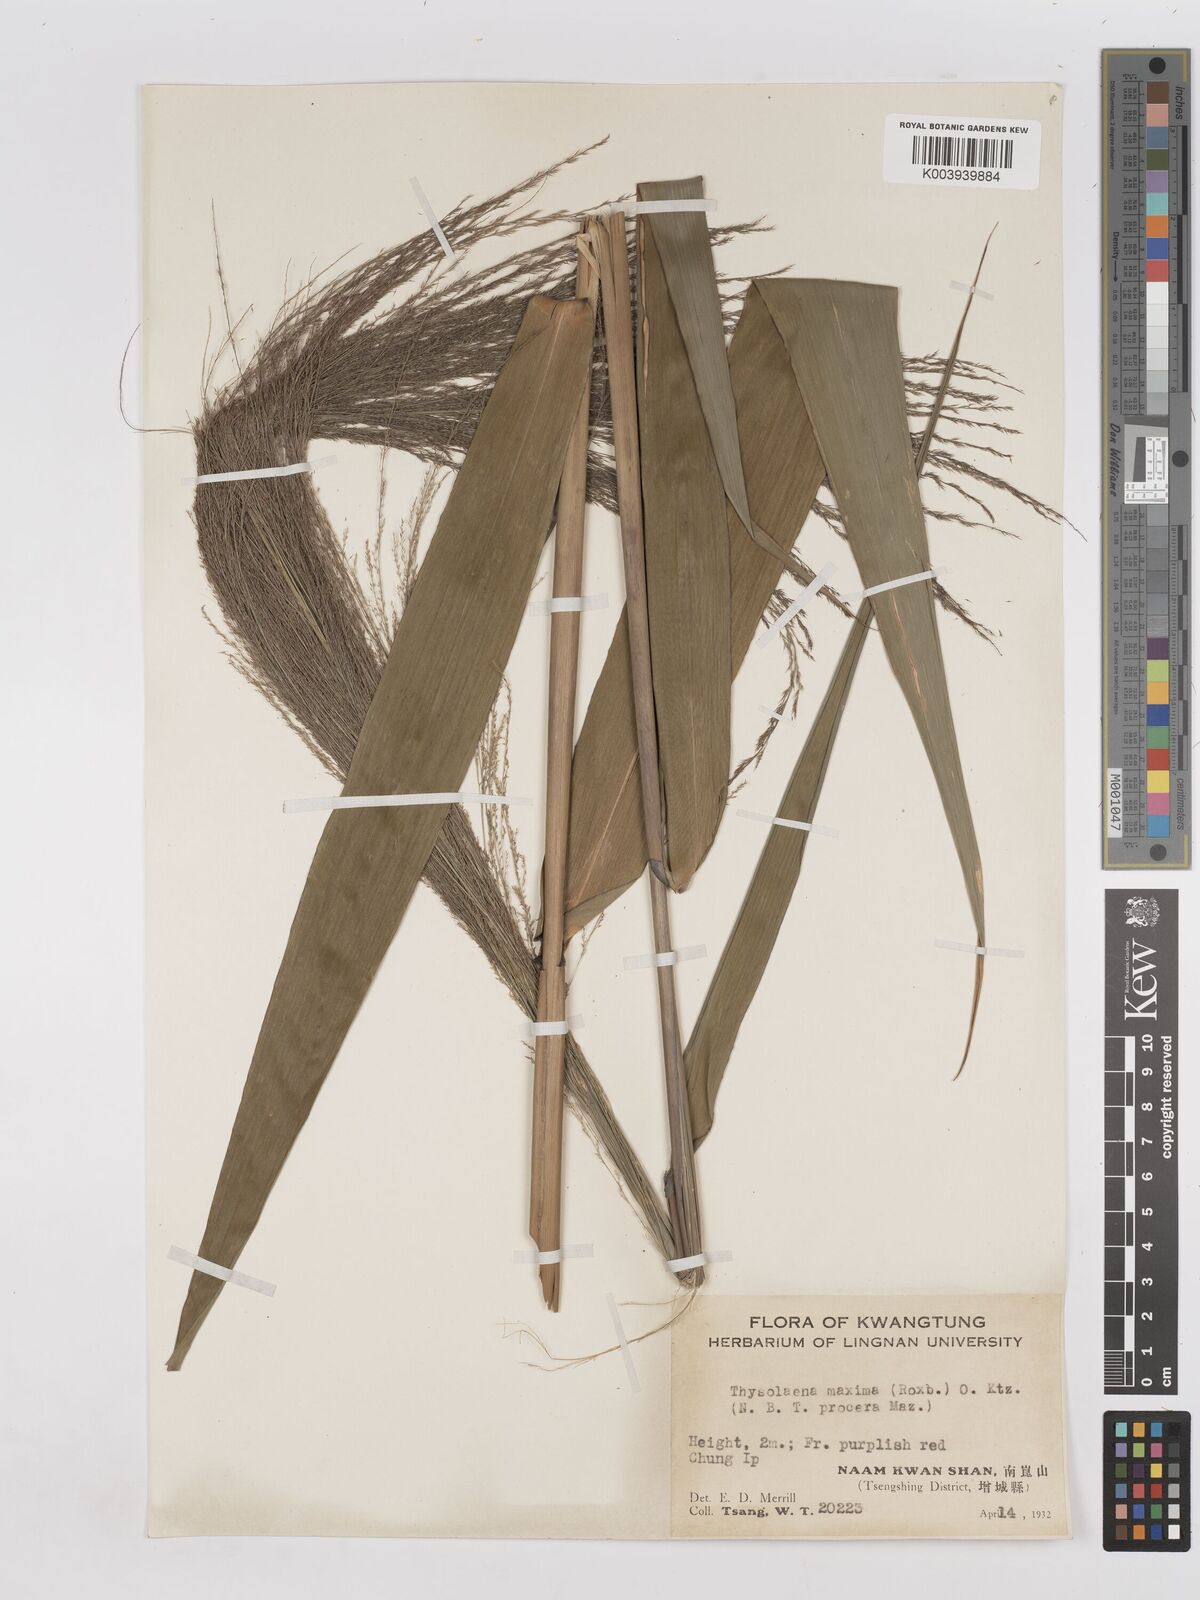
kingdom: Plantae
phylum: Tracheophyta
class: Liliopsida
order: Poales
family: Poaceae
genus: Thysanolaena
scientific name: Thysanolaena latifolia
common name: Tiger grass
